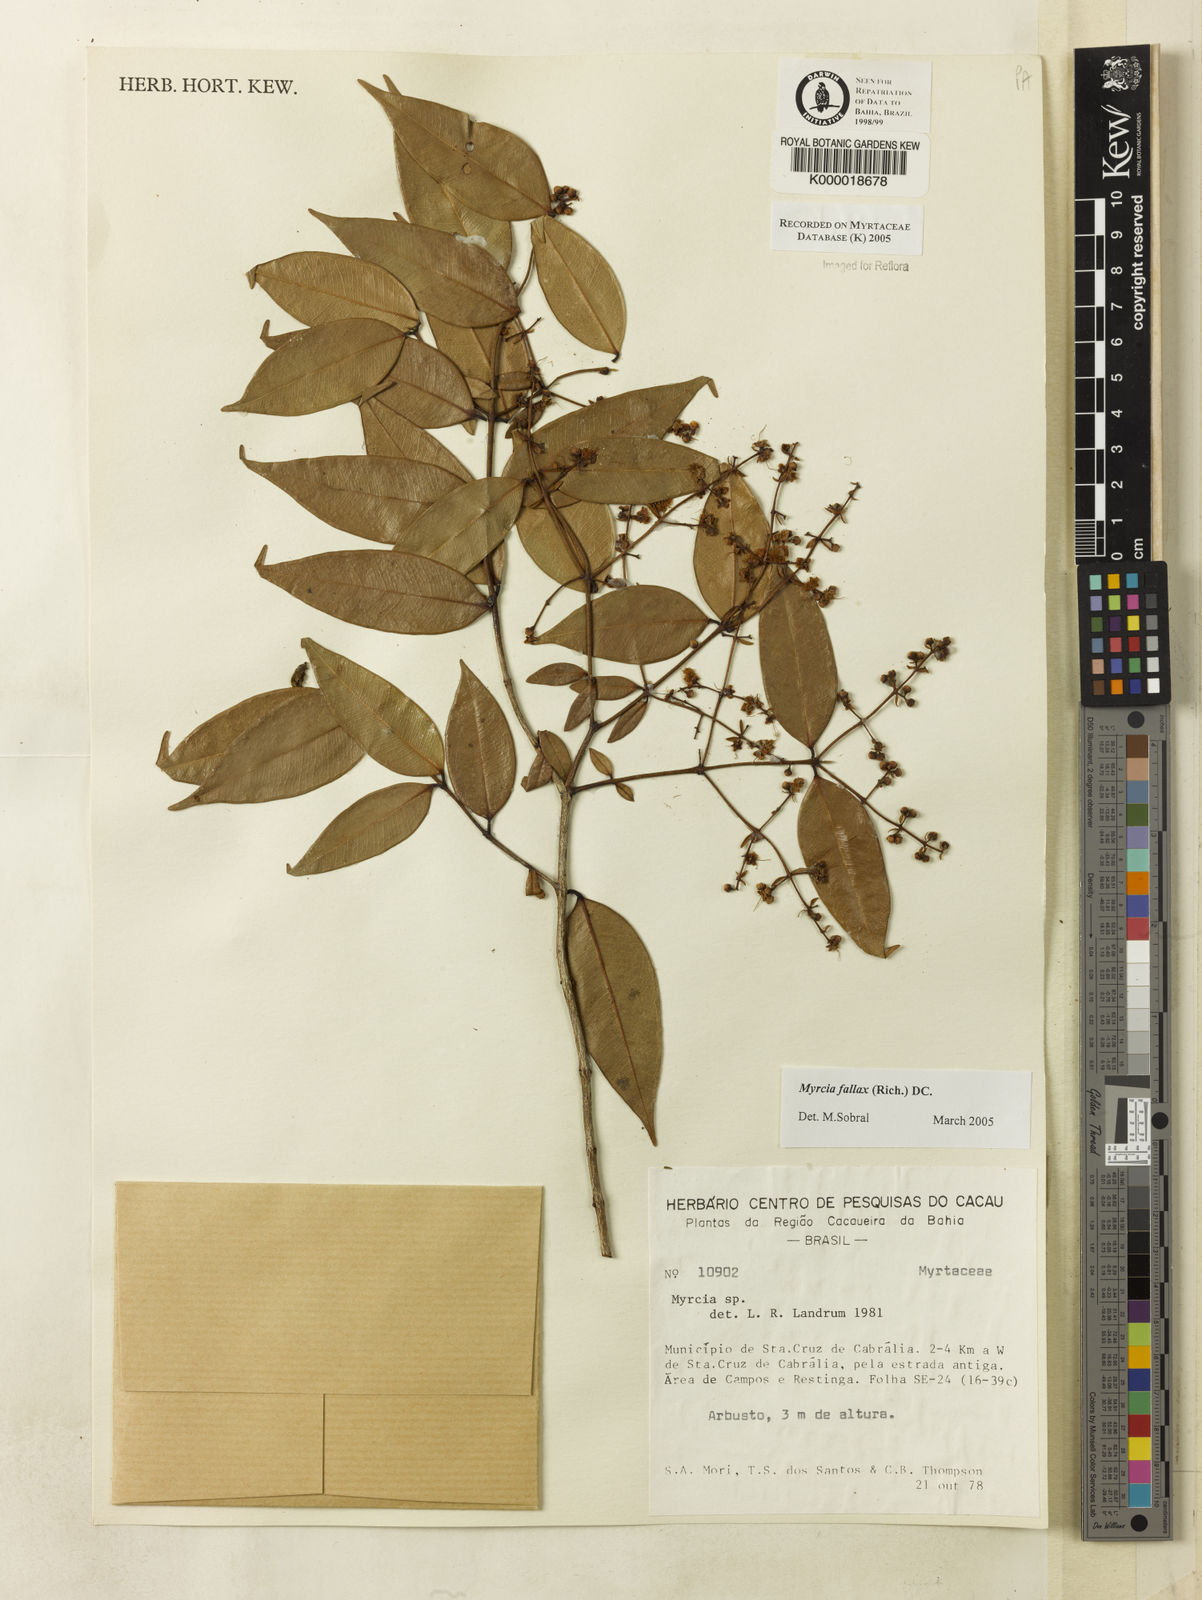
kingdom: Plantae
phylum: Tracheophyta
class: Magnoliopsida
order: Myrtales
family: Myrtaceae
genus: Myrcia
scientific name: Myrcia
